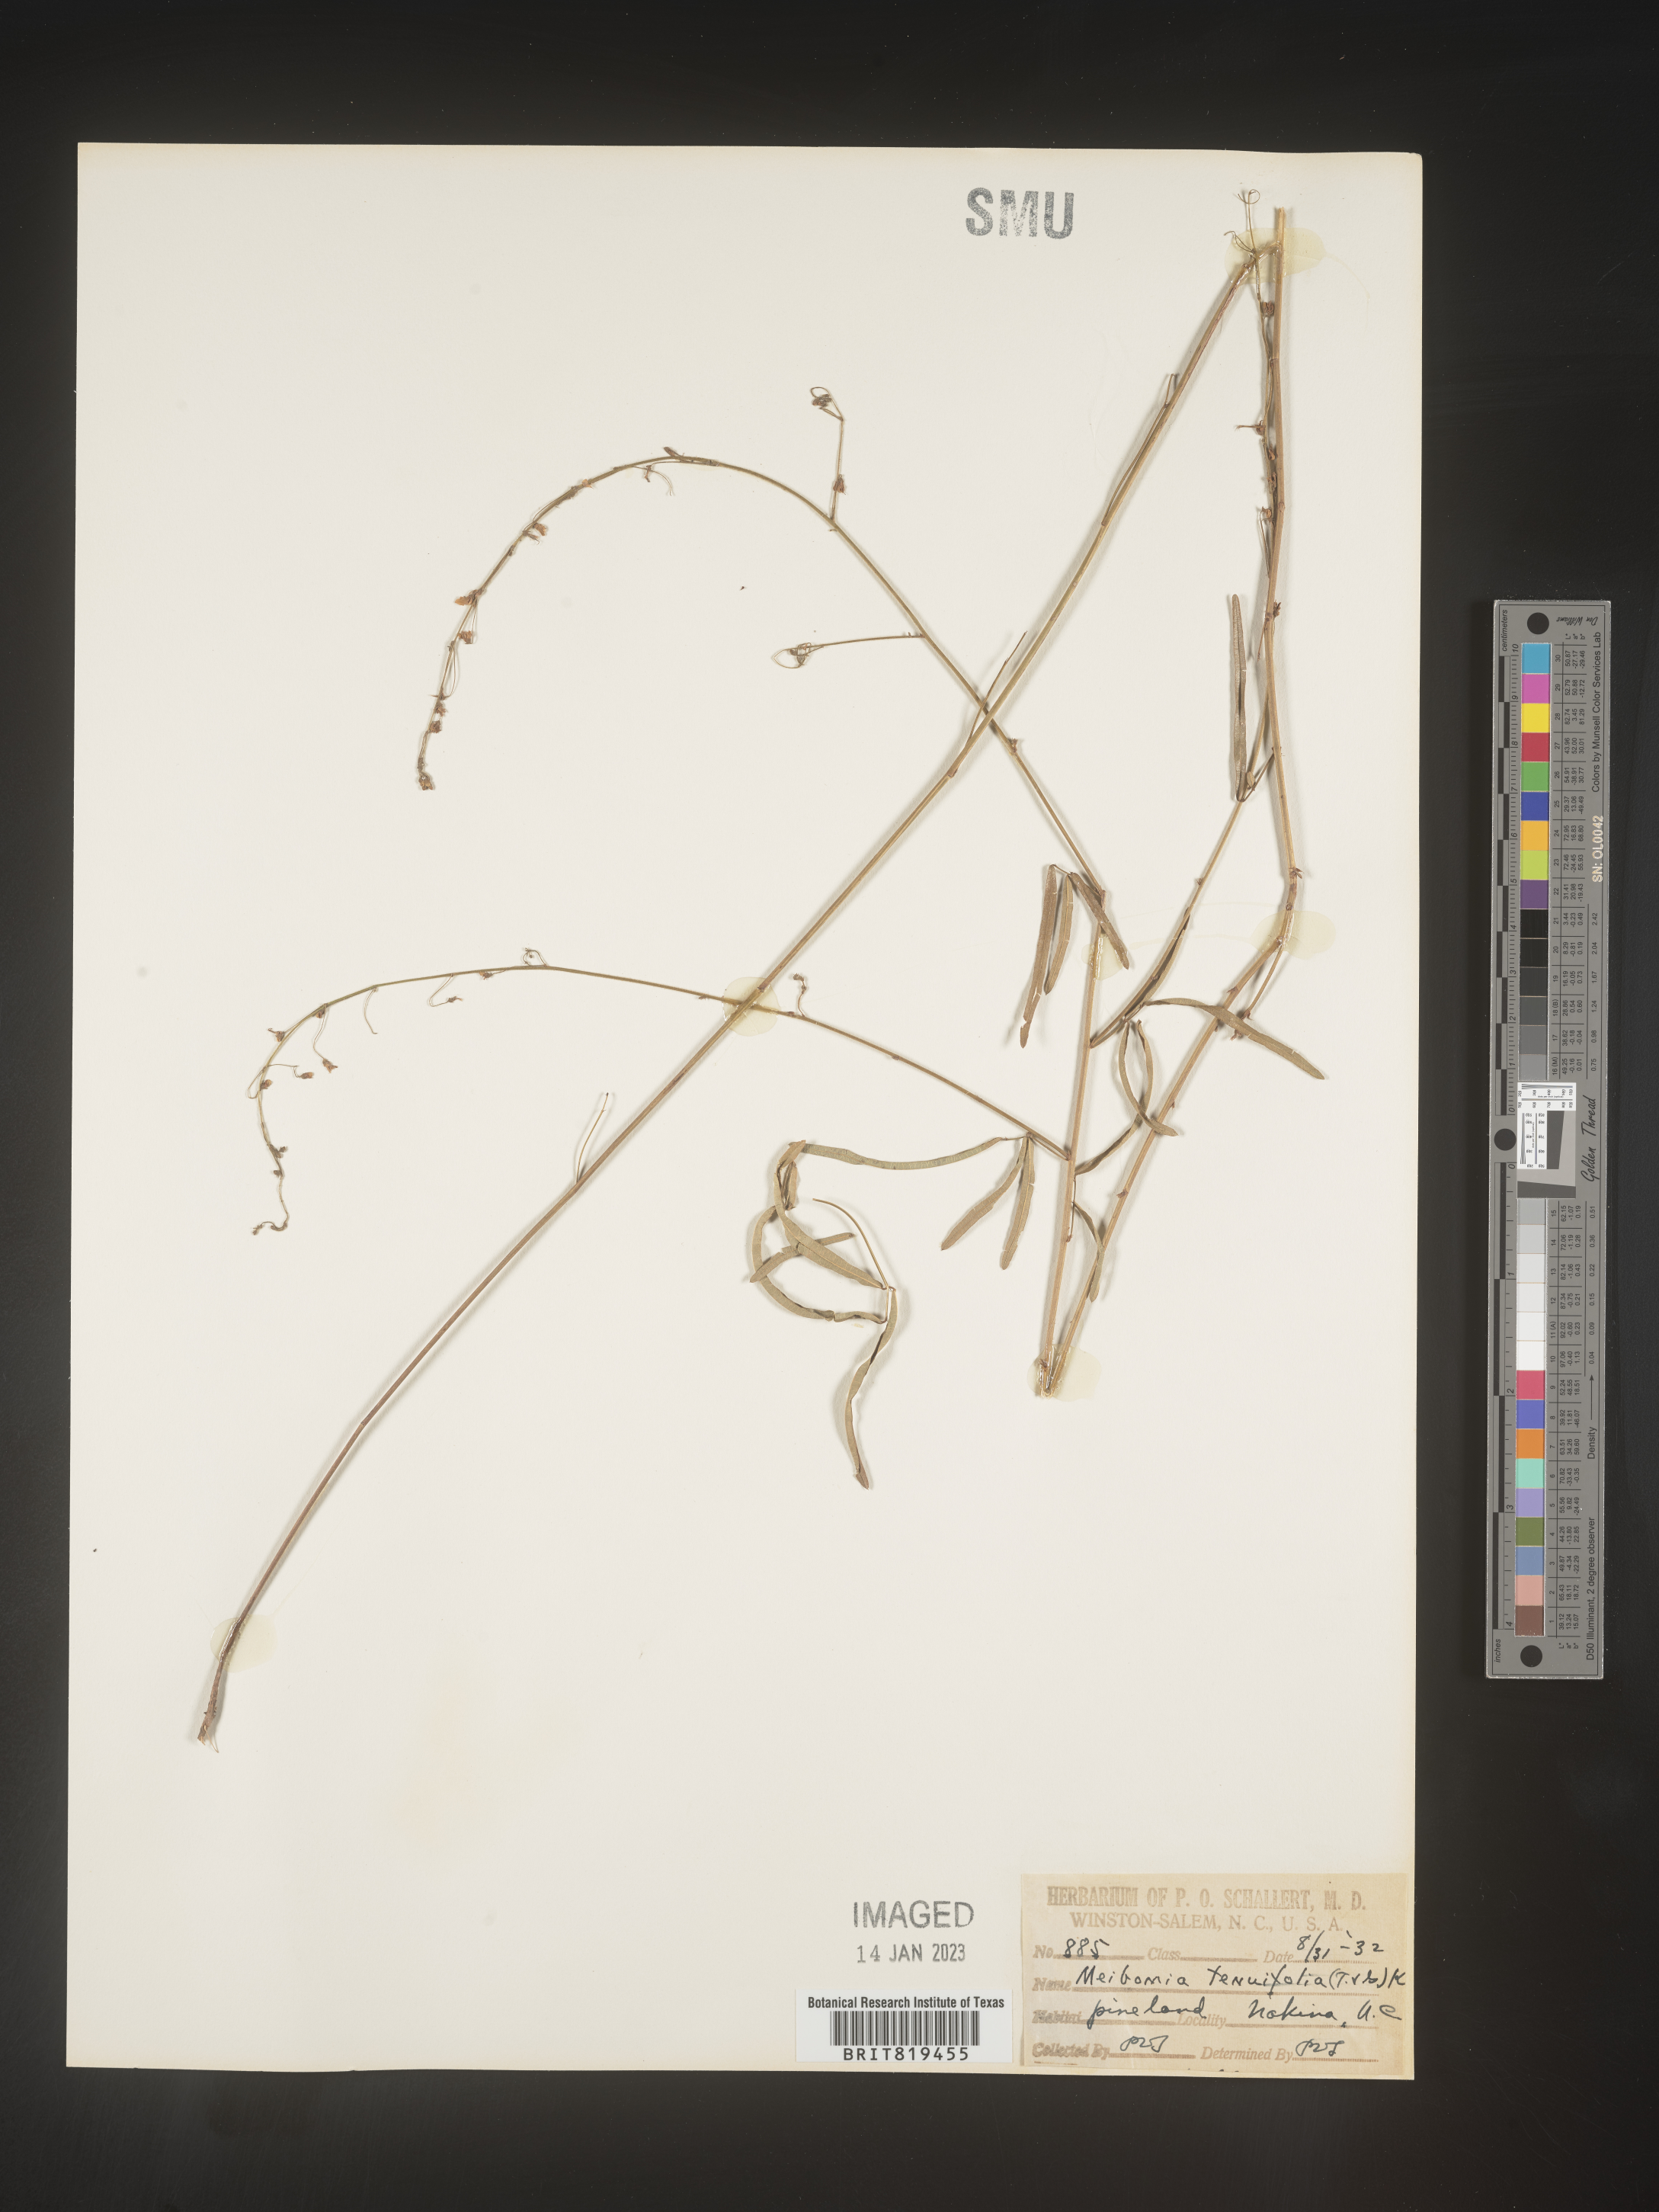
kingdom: Plantae
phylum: Tracheophyta
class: Magnoliopsida
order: Fabales
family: Fabaceae
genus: Desmodium
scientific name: Desmodium tenuifolium
